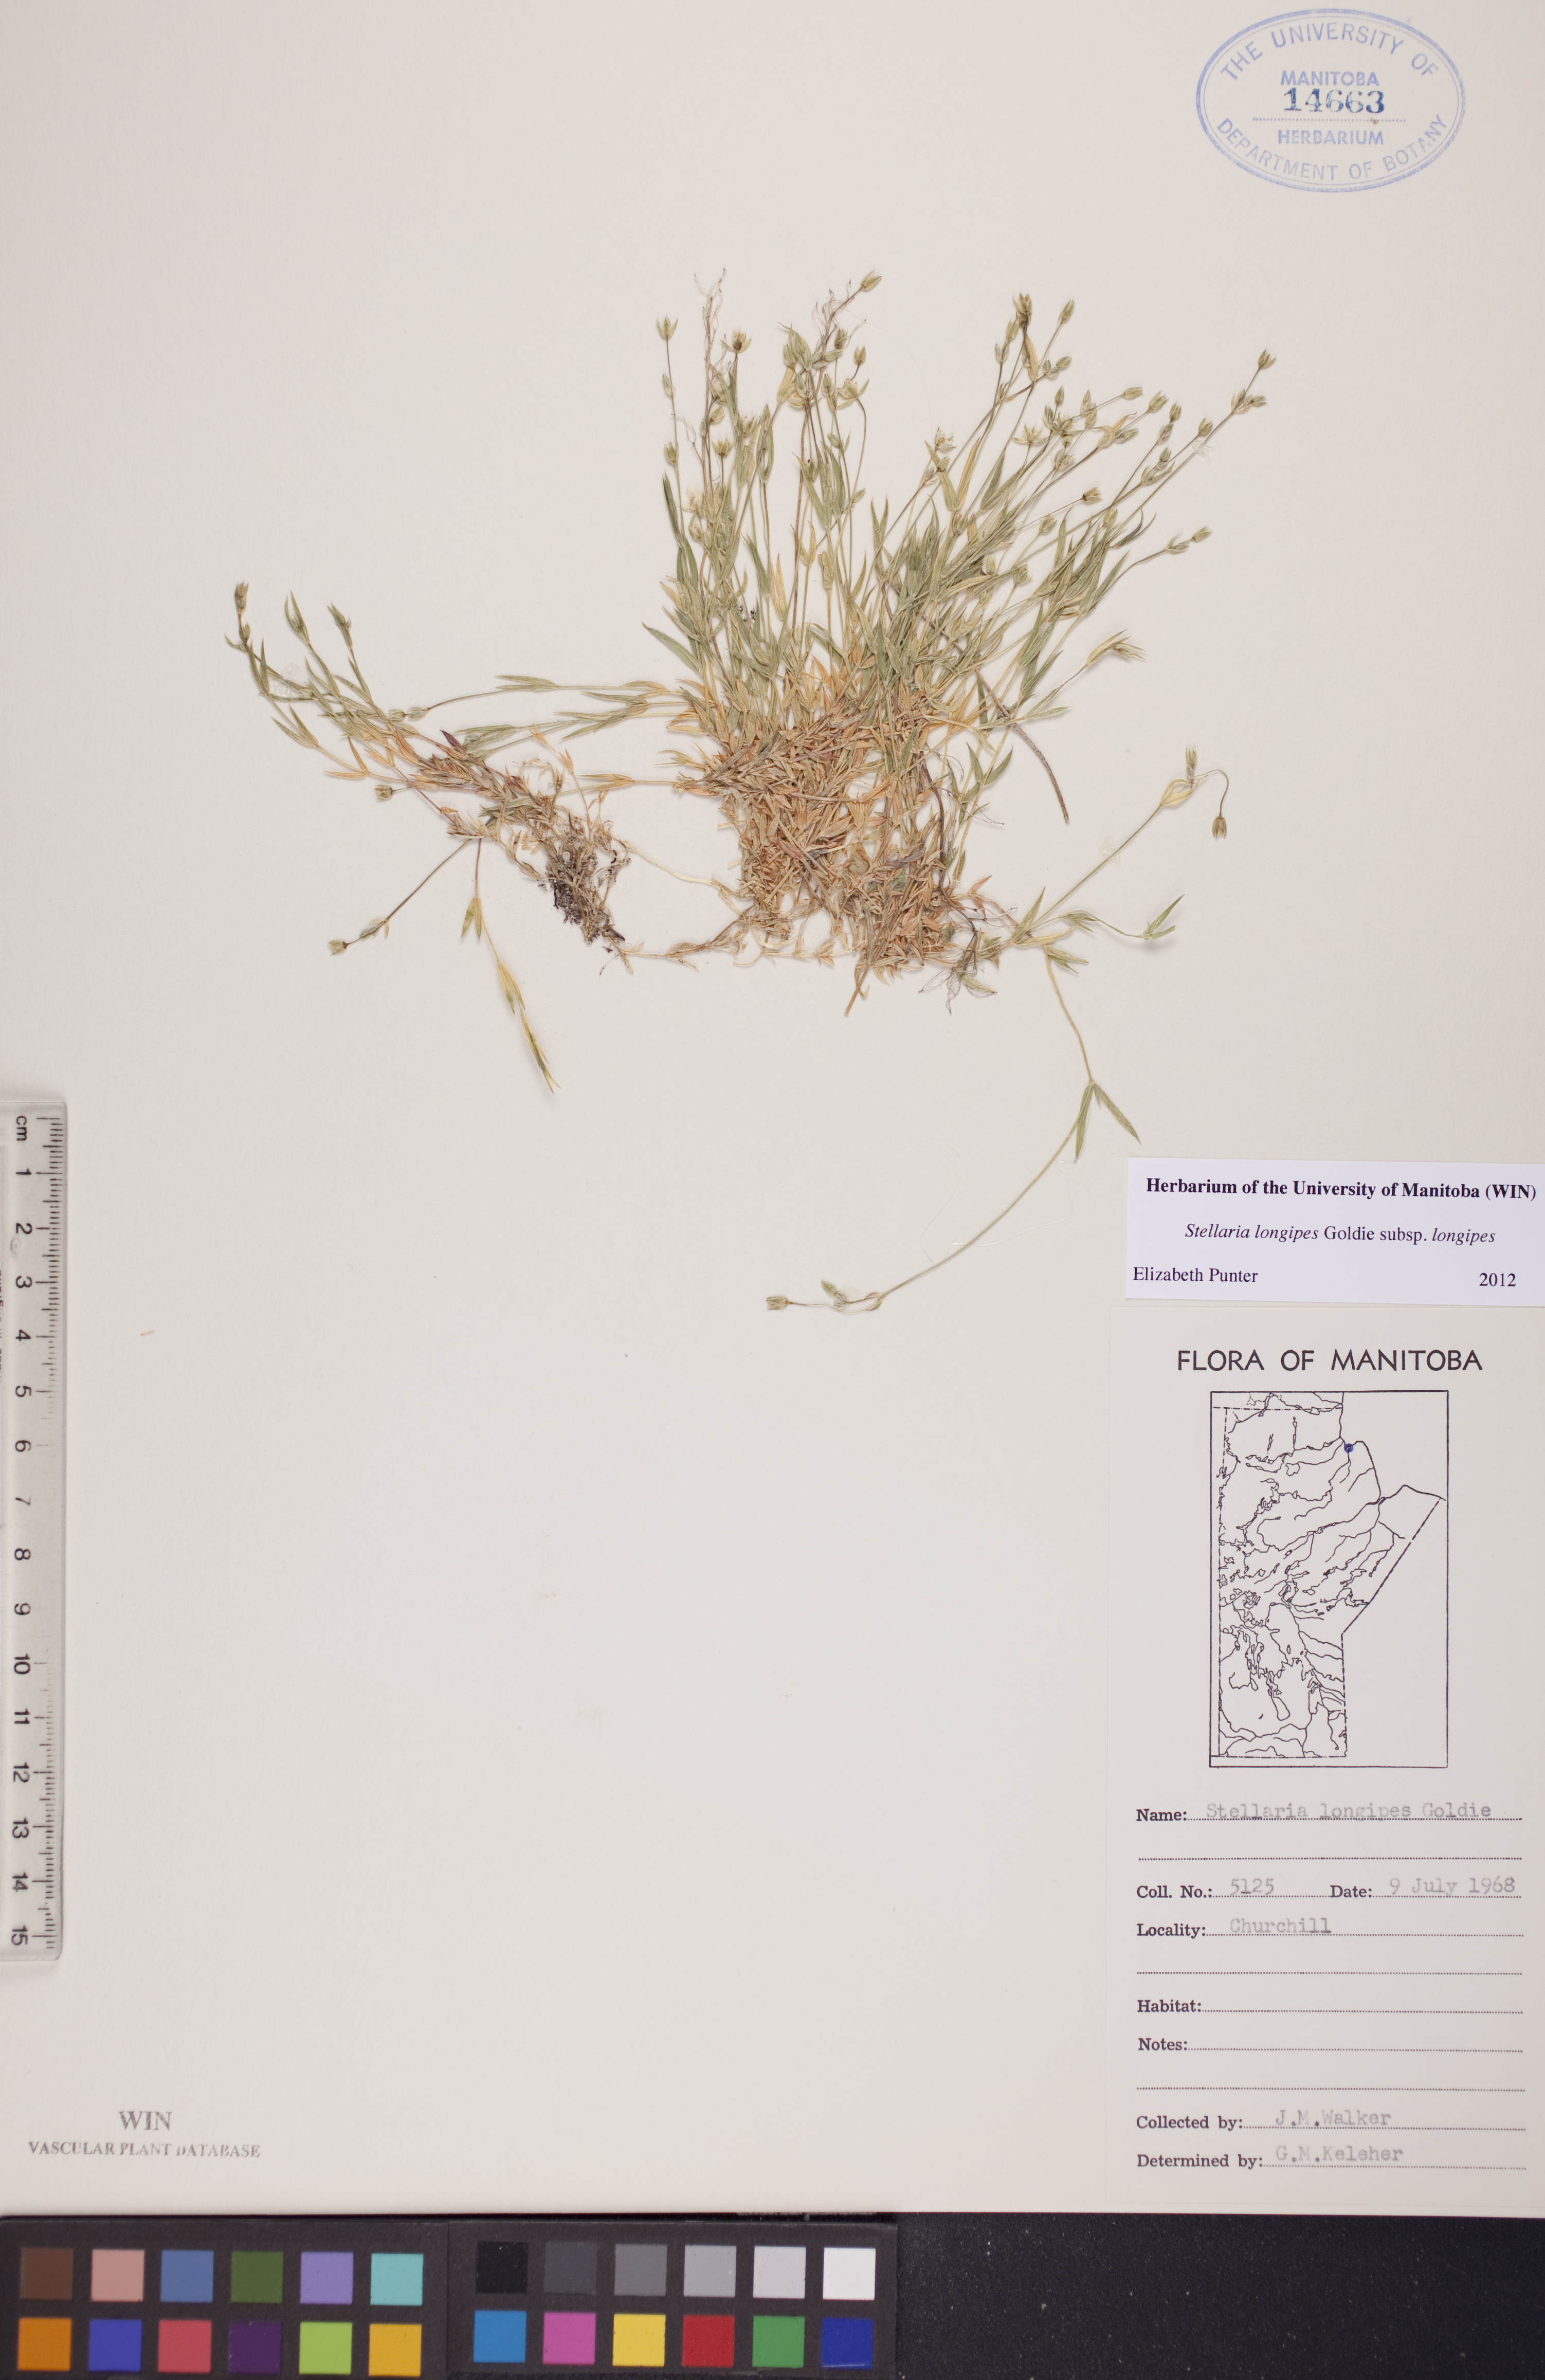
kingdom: Plantae
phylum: Tracheophyta
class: Magnoliopsida
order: Caryophyllales
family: Caryophyllaceae
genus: Stellaria
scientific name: Stellaria longipes
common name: Goldie's starwort
